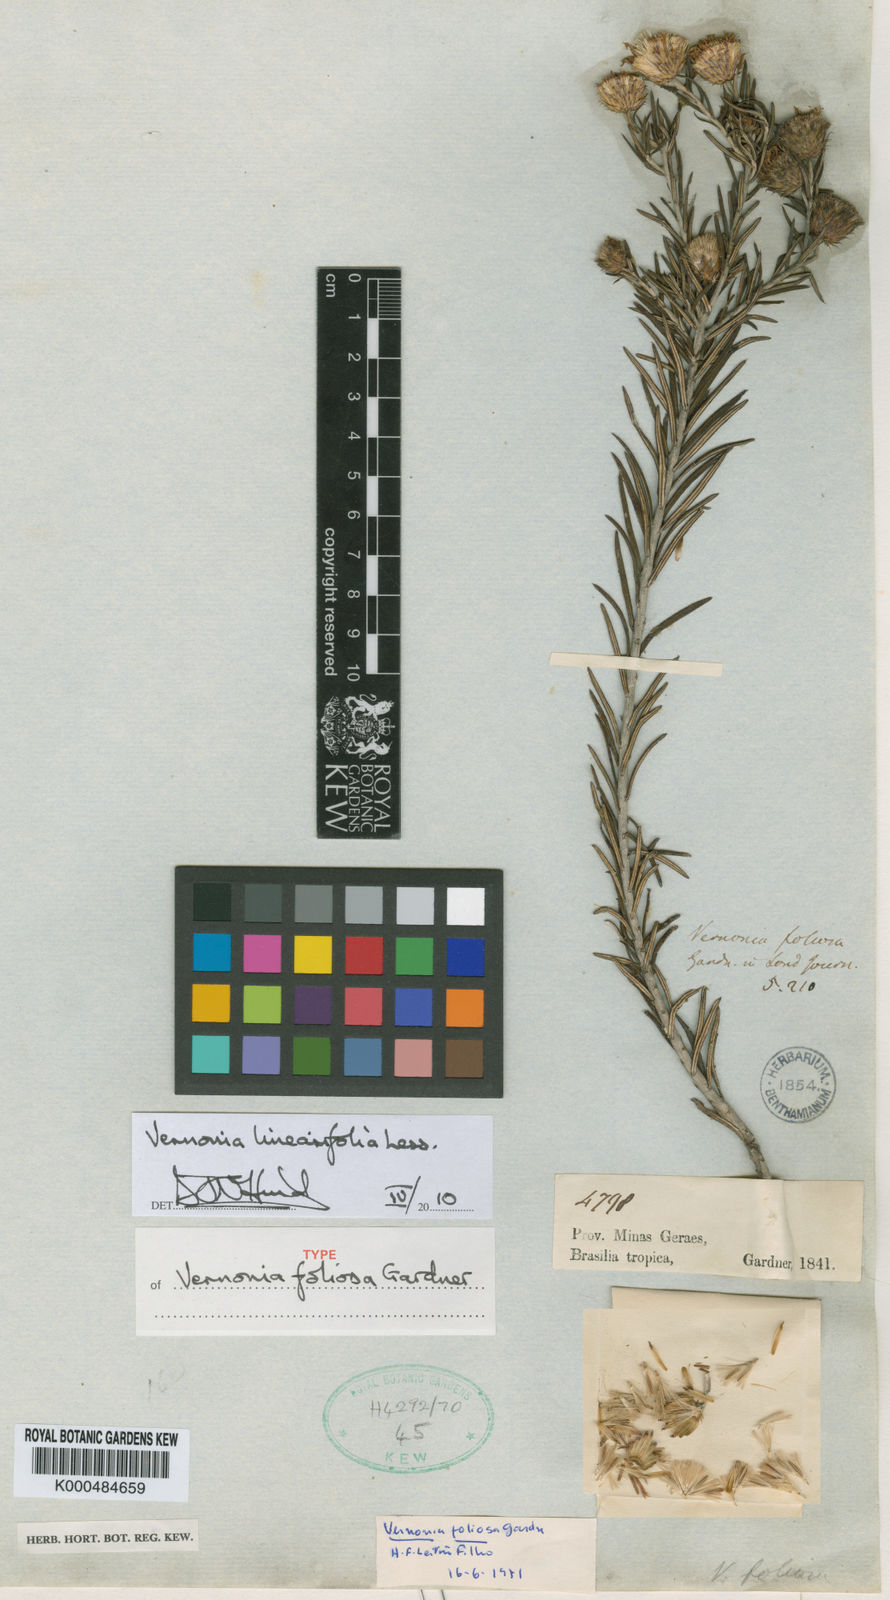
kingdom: Plantae
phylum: Tracheophyta
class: Magnoliopsida
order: Asterales
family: Asteraceae
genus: Lessingianthus
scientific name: Lessingianthus linearifolius
